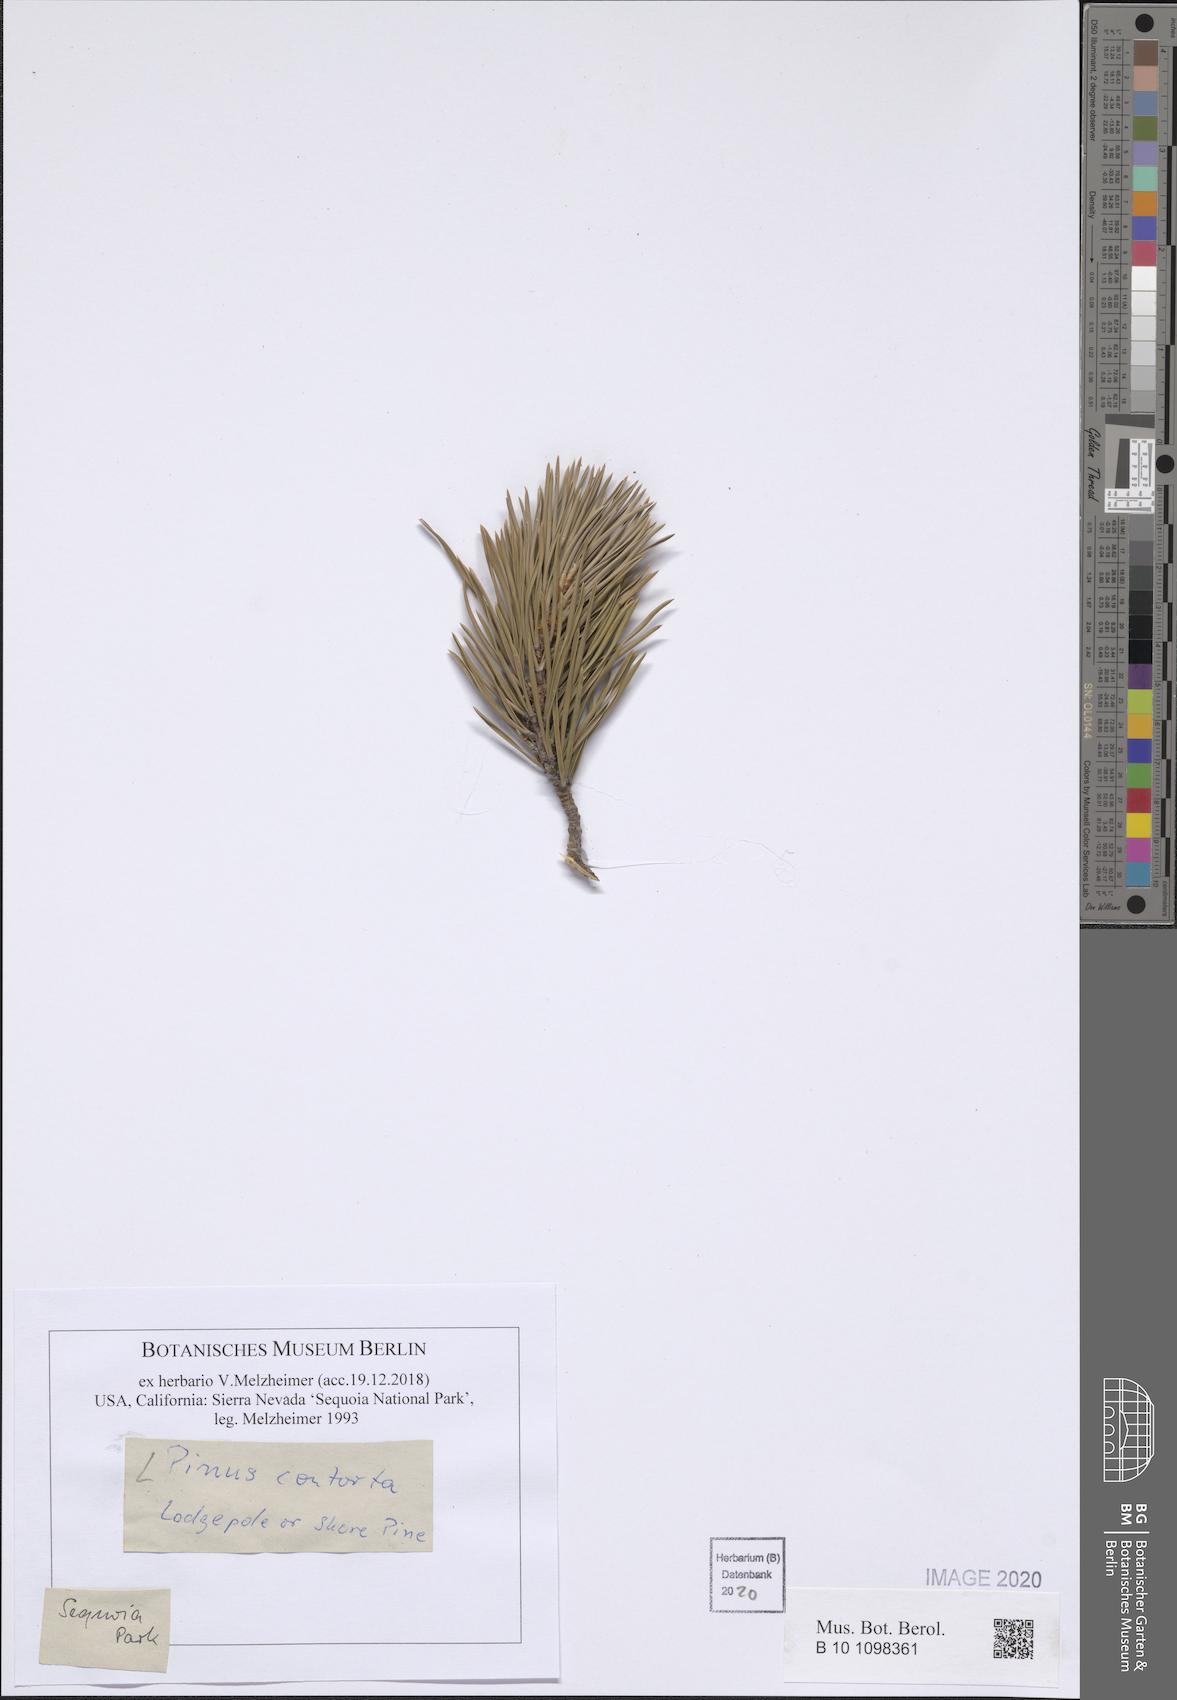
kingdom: Plantae
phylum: Tracheophyta
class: Pinopsida
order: Pinales
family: Pinaceae
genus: Pinus
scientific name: Pinus contorta
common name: Lodgepole pine
